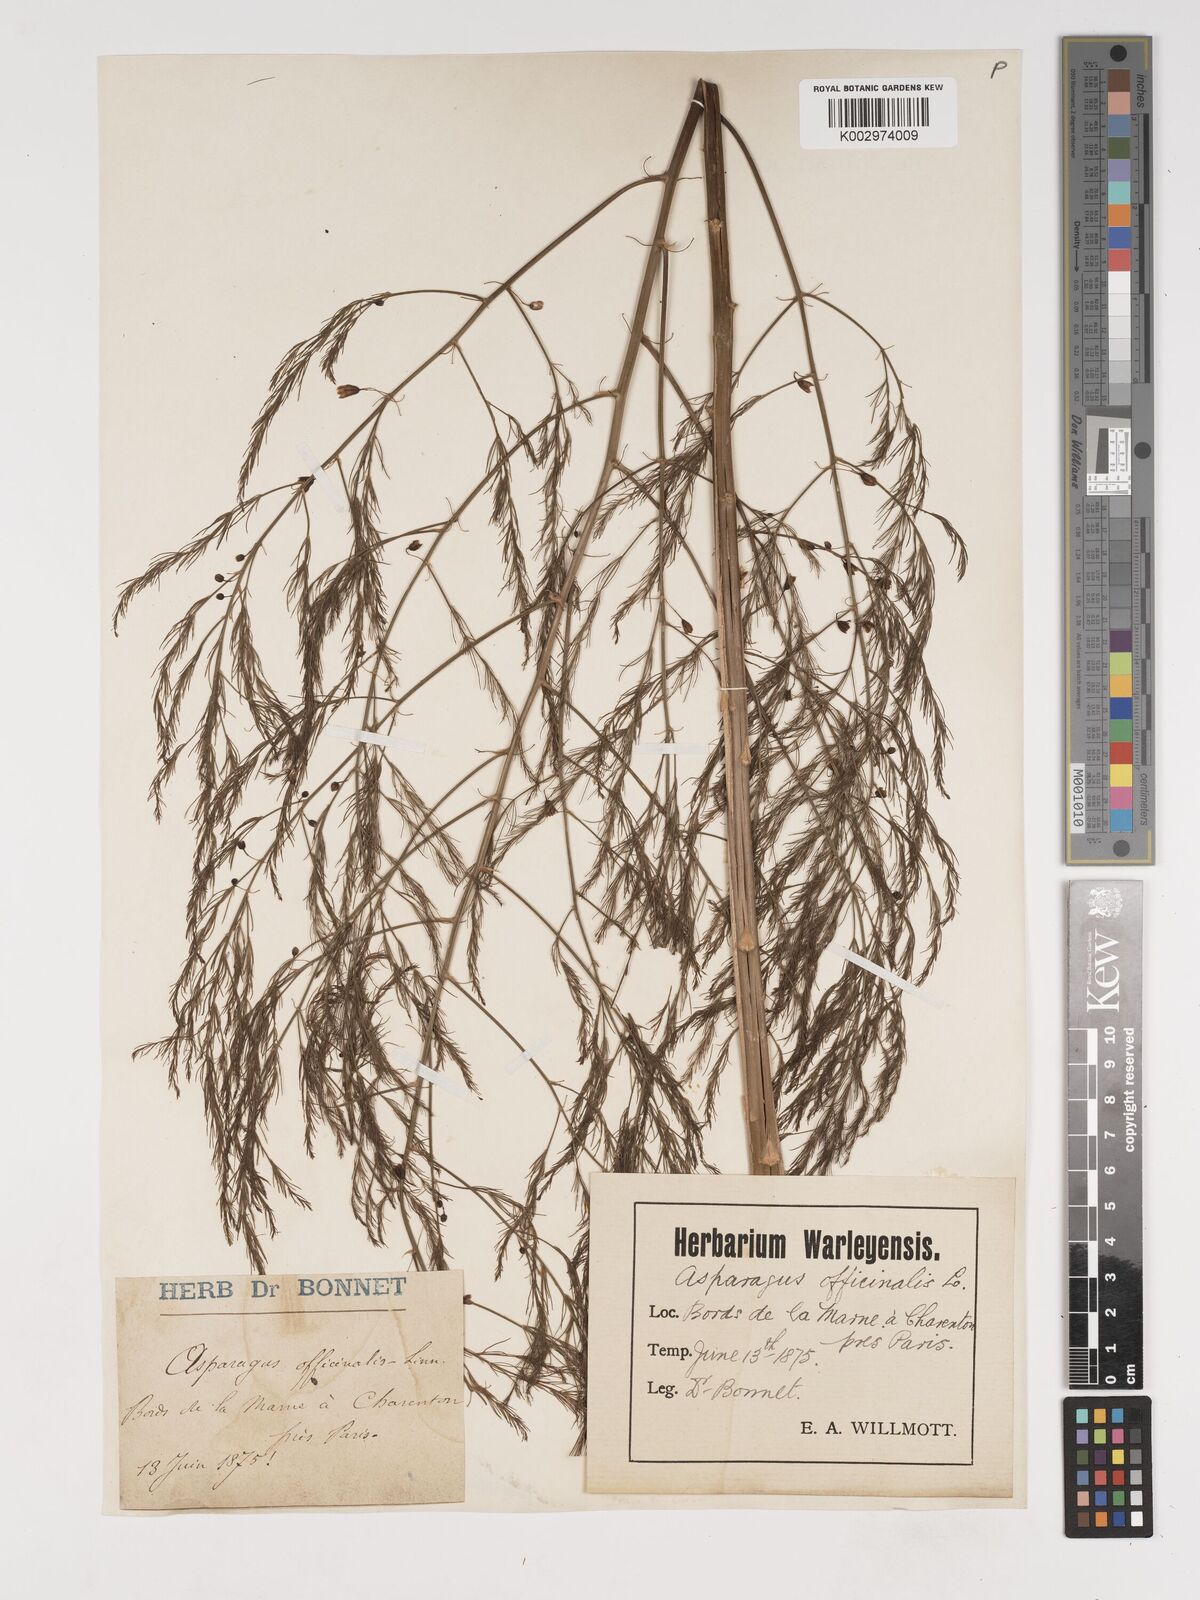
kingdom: Plantae
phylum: Tracheophyta
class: Liliopsida
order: Asparagales
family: Asparagaceae
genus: Asparagus
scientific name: Asparagus officinalis
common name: Garden asparagus
